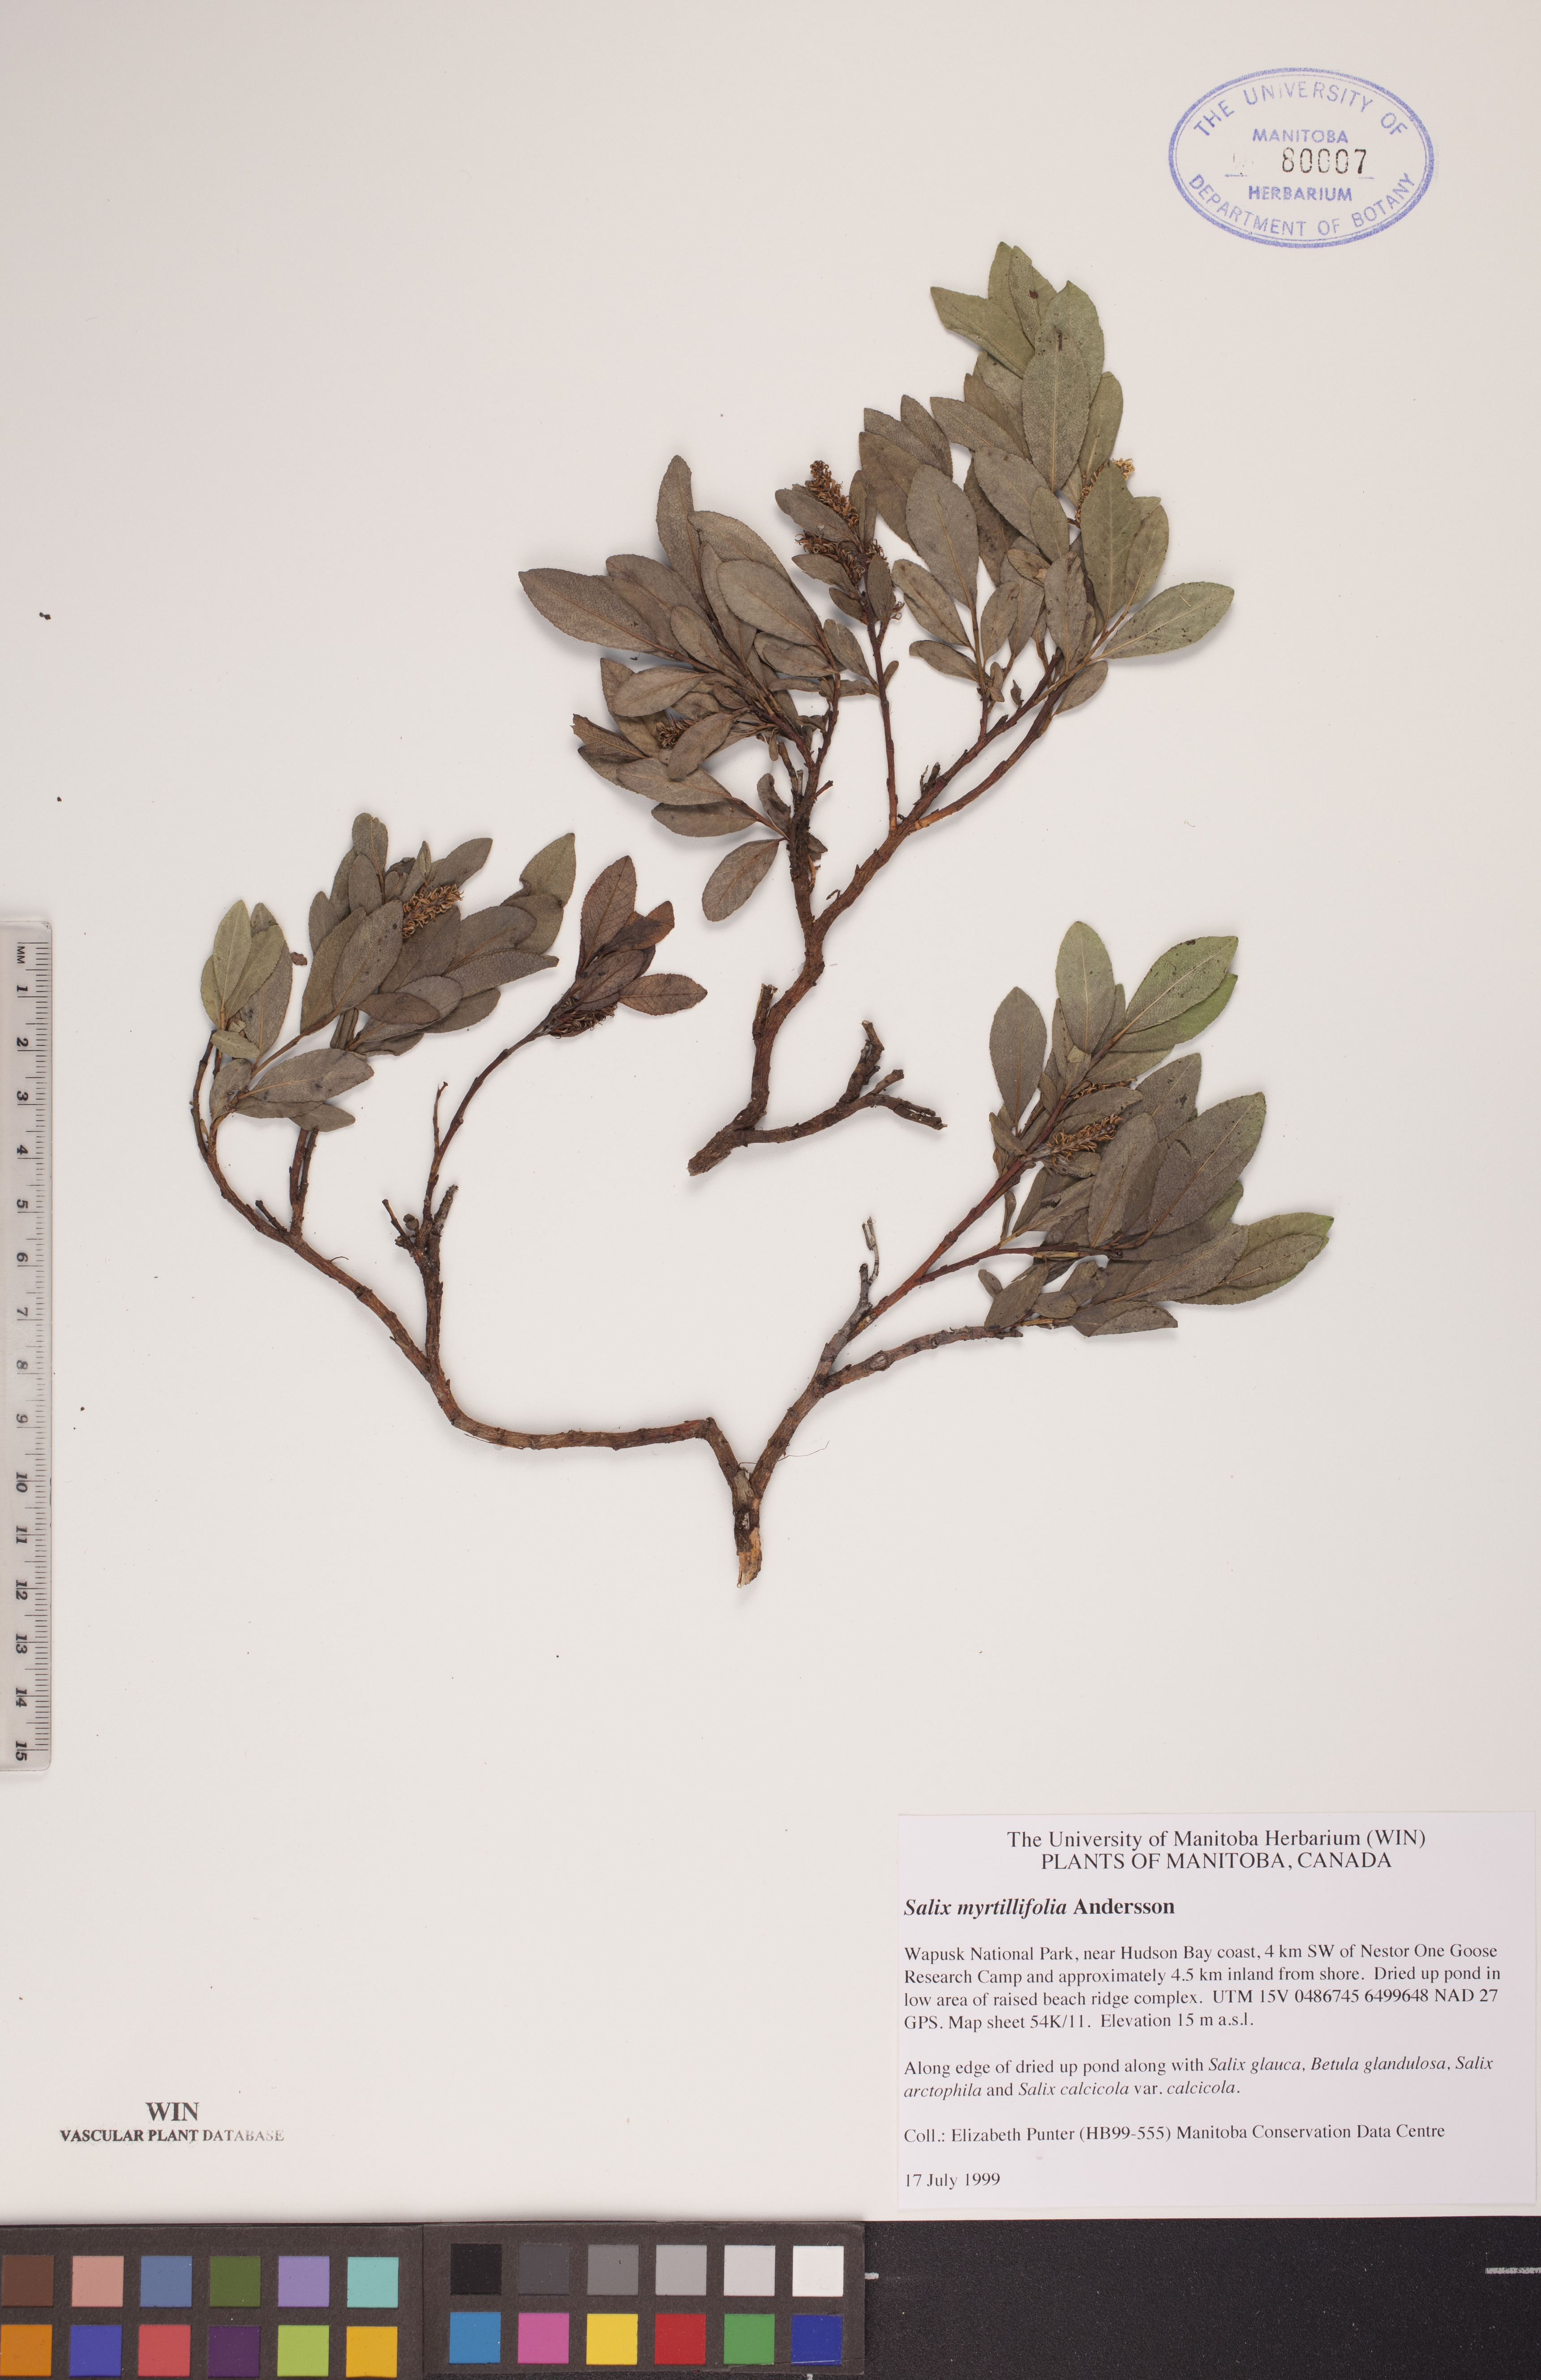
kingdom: Plantae
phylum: Tracheophyta
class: Magnoliopsida
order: Malpighiales
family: Salicaceae
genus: Salix
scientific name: Salix myrtillifolia
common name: Bilberry willow
